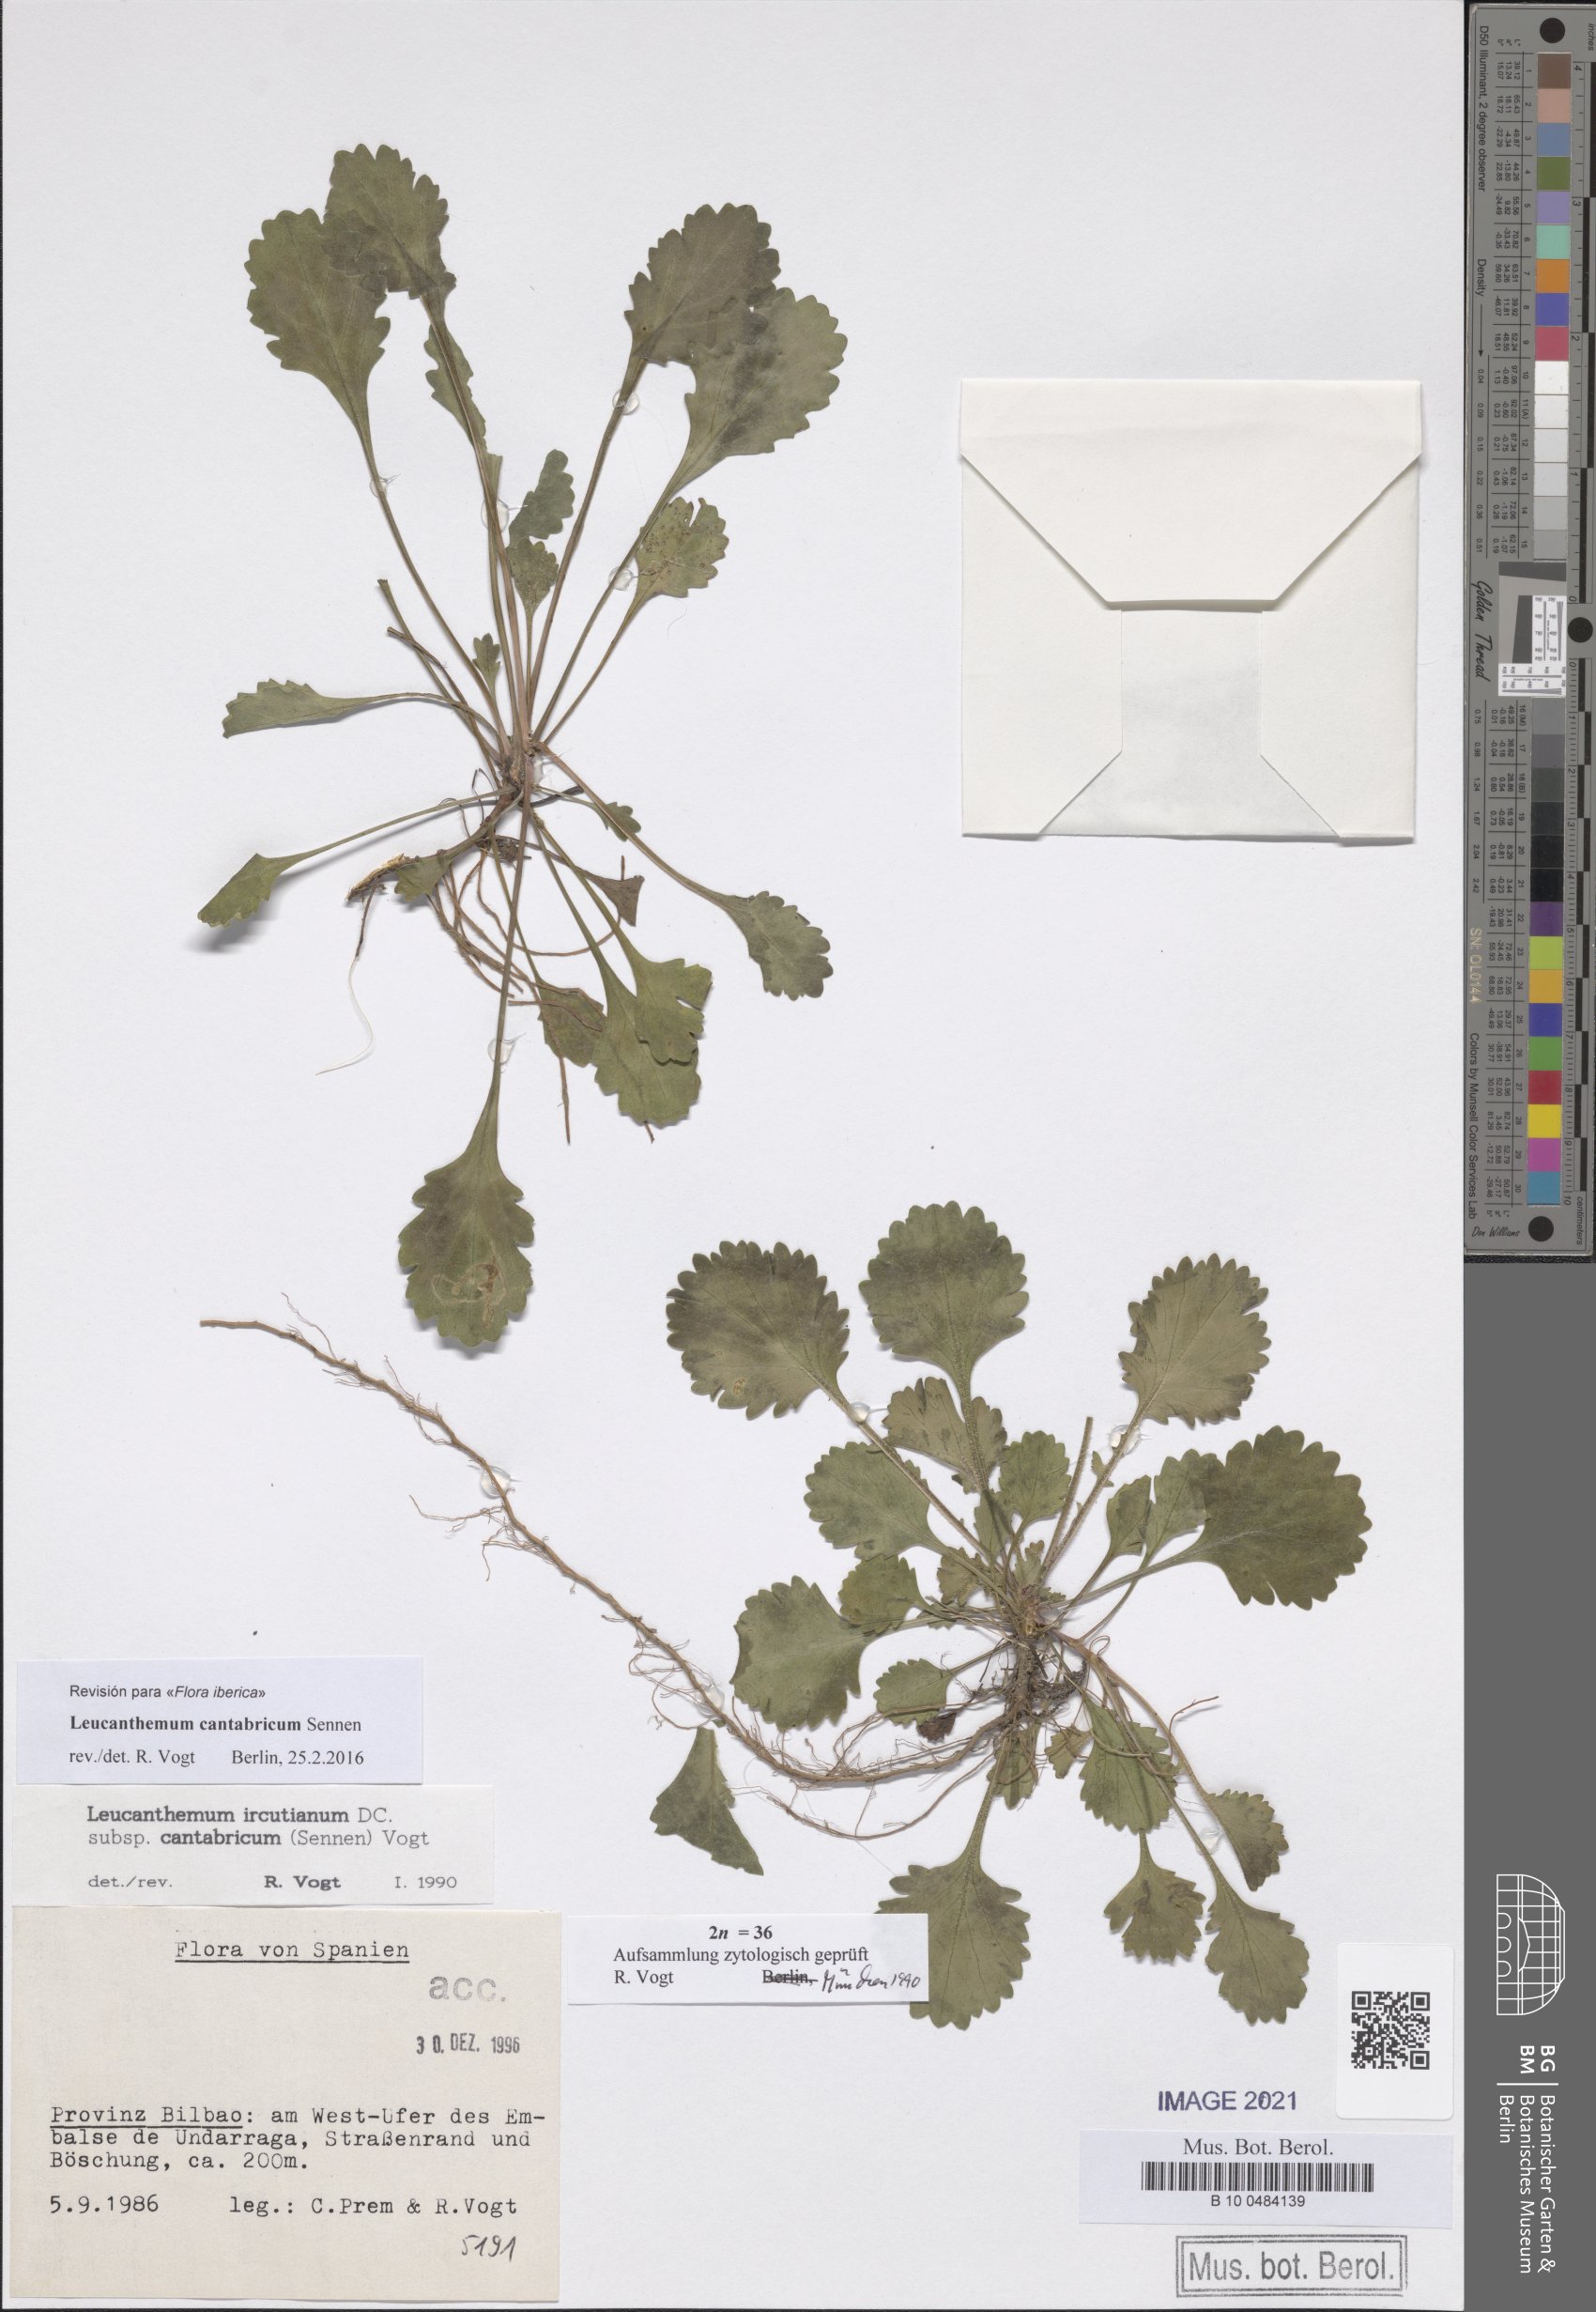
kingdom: Plantae
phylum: Tracheophyta
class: Magnoliopsida
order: Asterales
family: Asteraceae
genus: Leucanthemum
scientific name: Leucanthemum cantabricum
